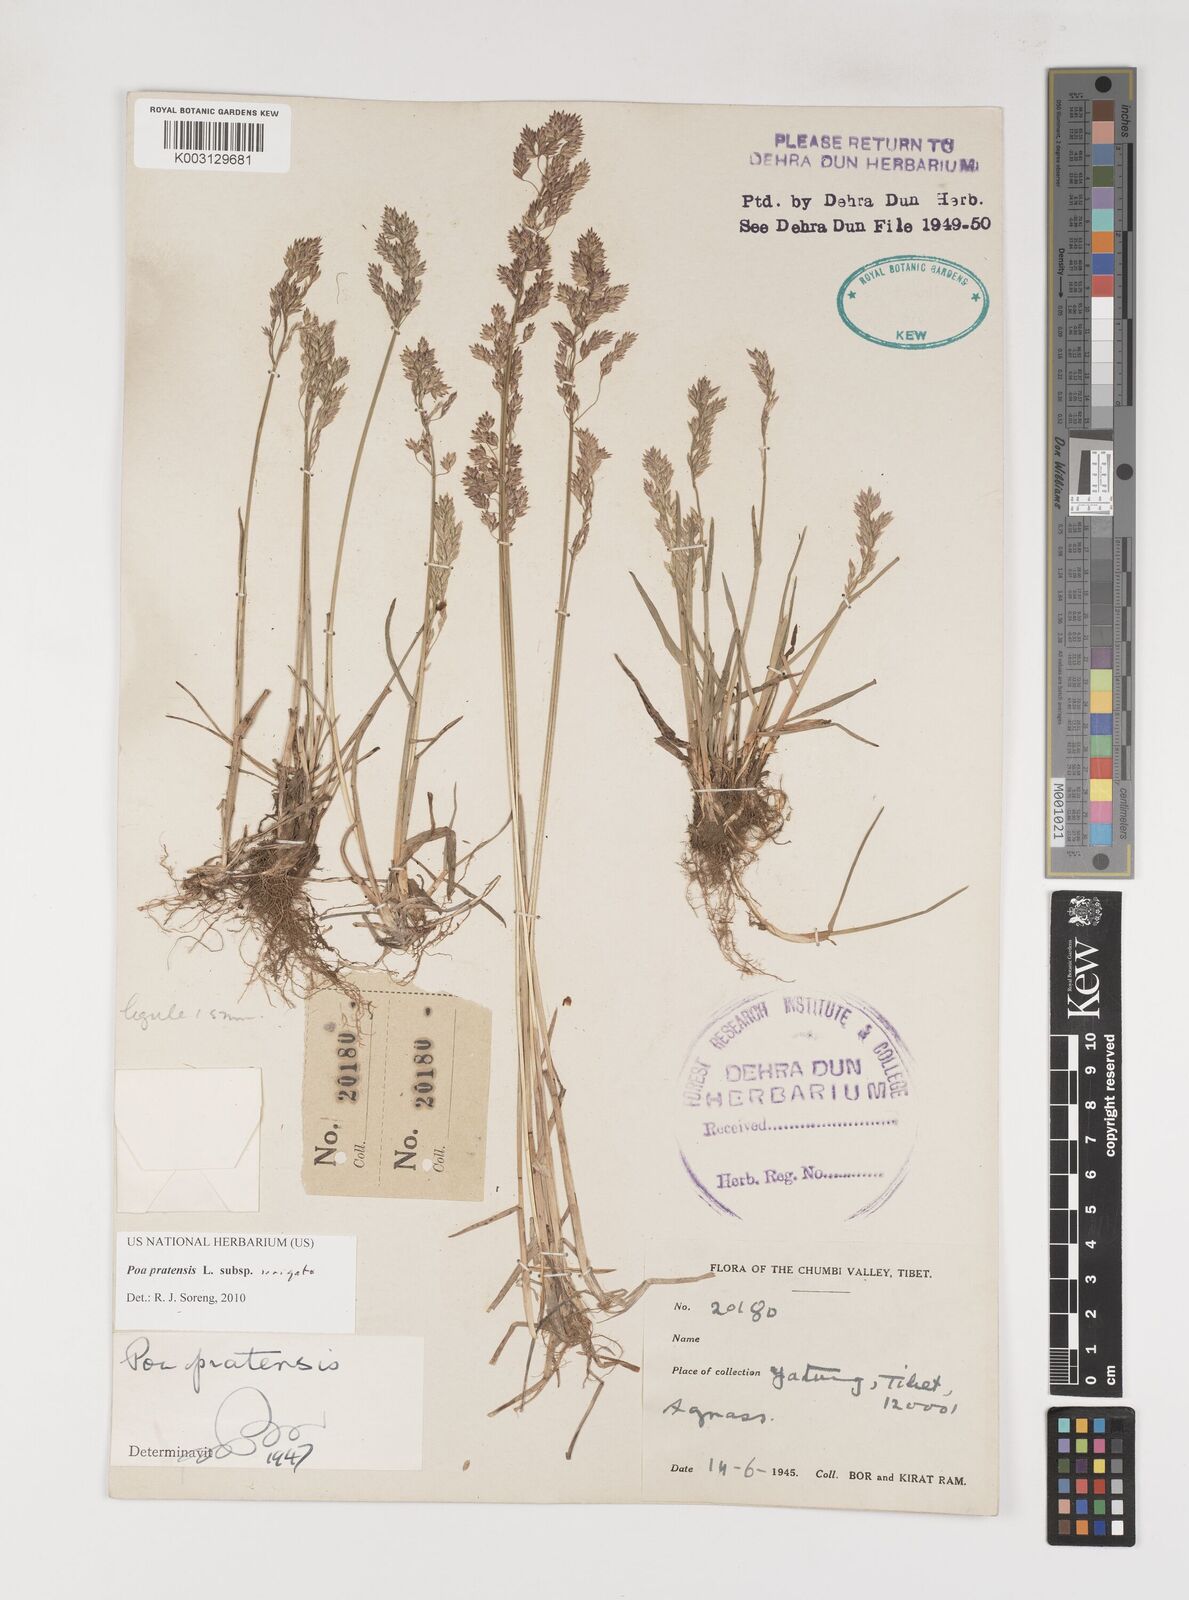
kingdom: Plantae
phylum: Tracheophyta
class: Liliopsida
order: Poales
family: Poaceae
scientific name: Poaceae
